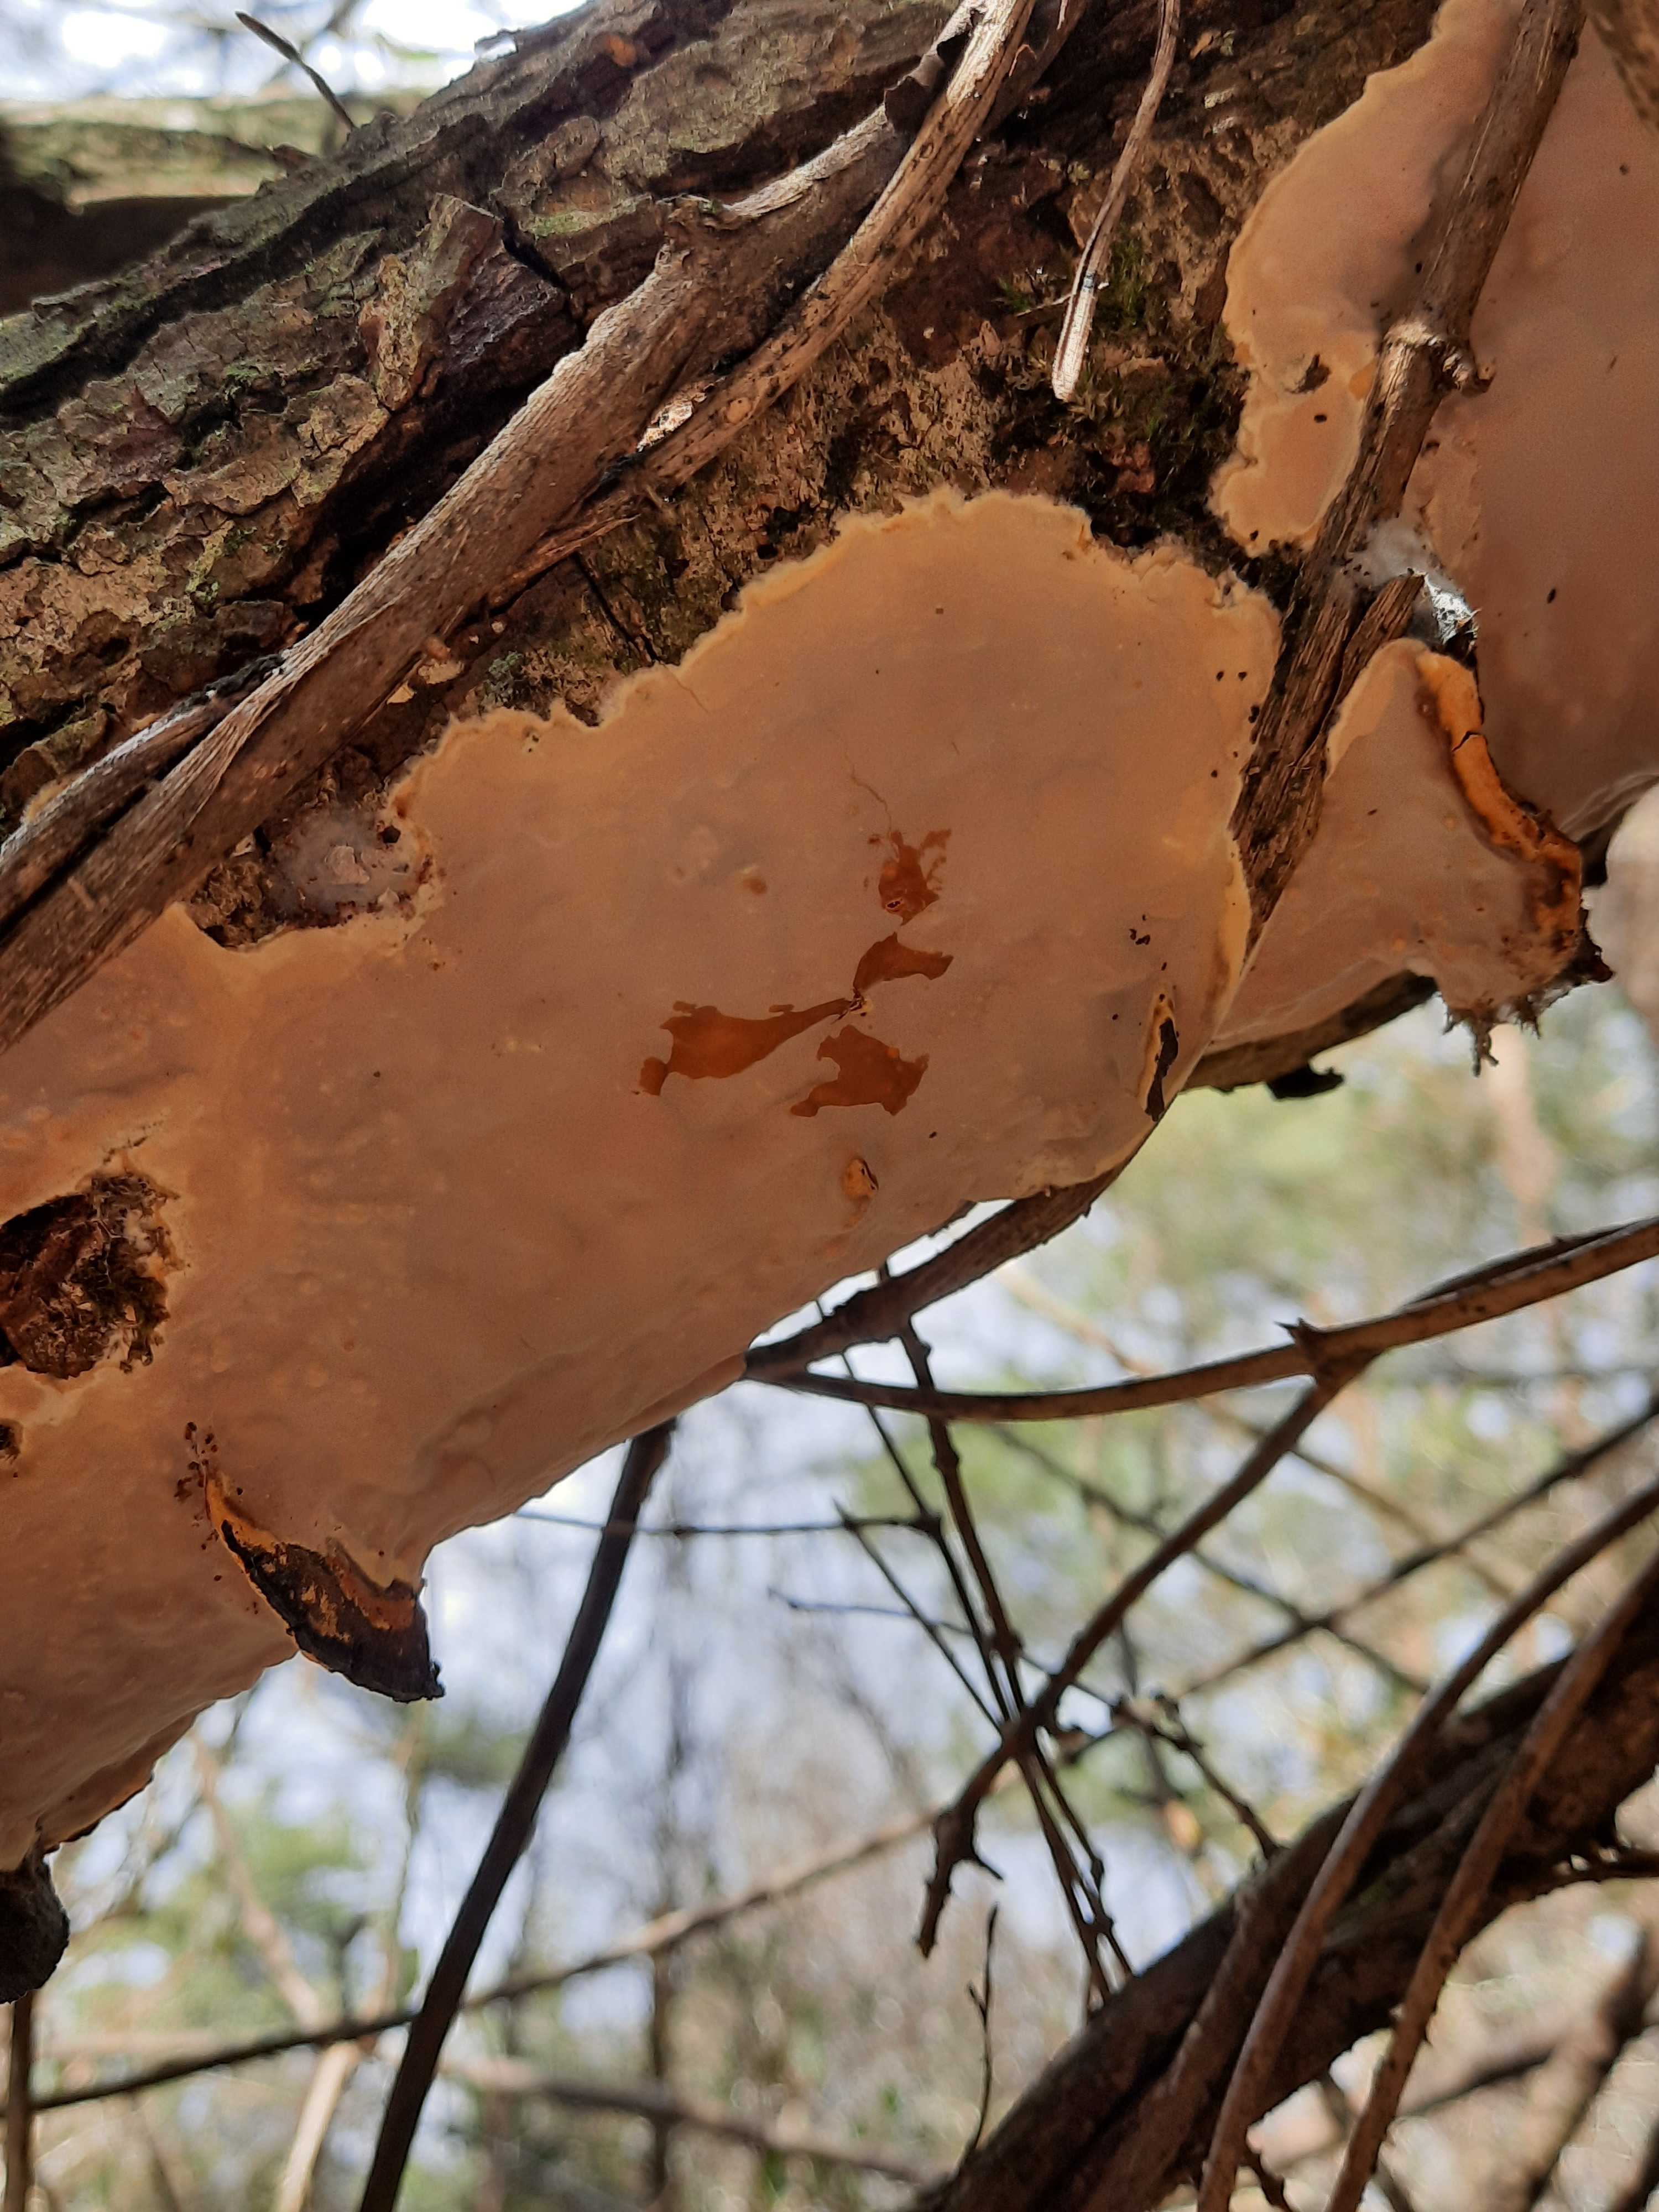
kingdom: Fungi
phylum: Basidiomycota
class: Agaricomycetes
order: Russulales
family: Peniophoraceae
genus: Scytinostroma
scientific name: Scytinostroma hemidichophyticum
